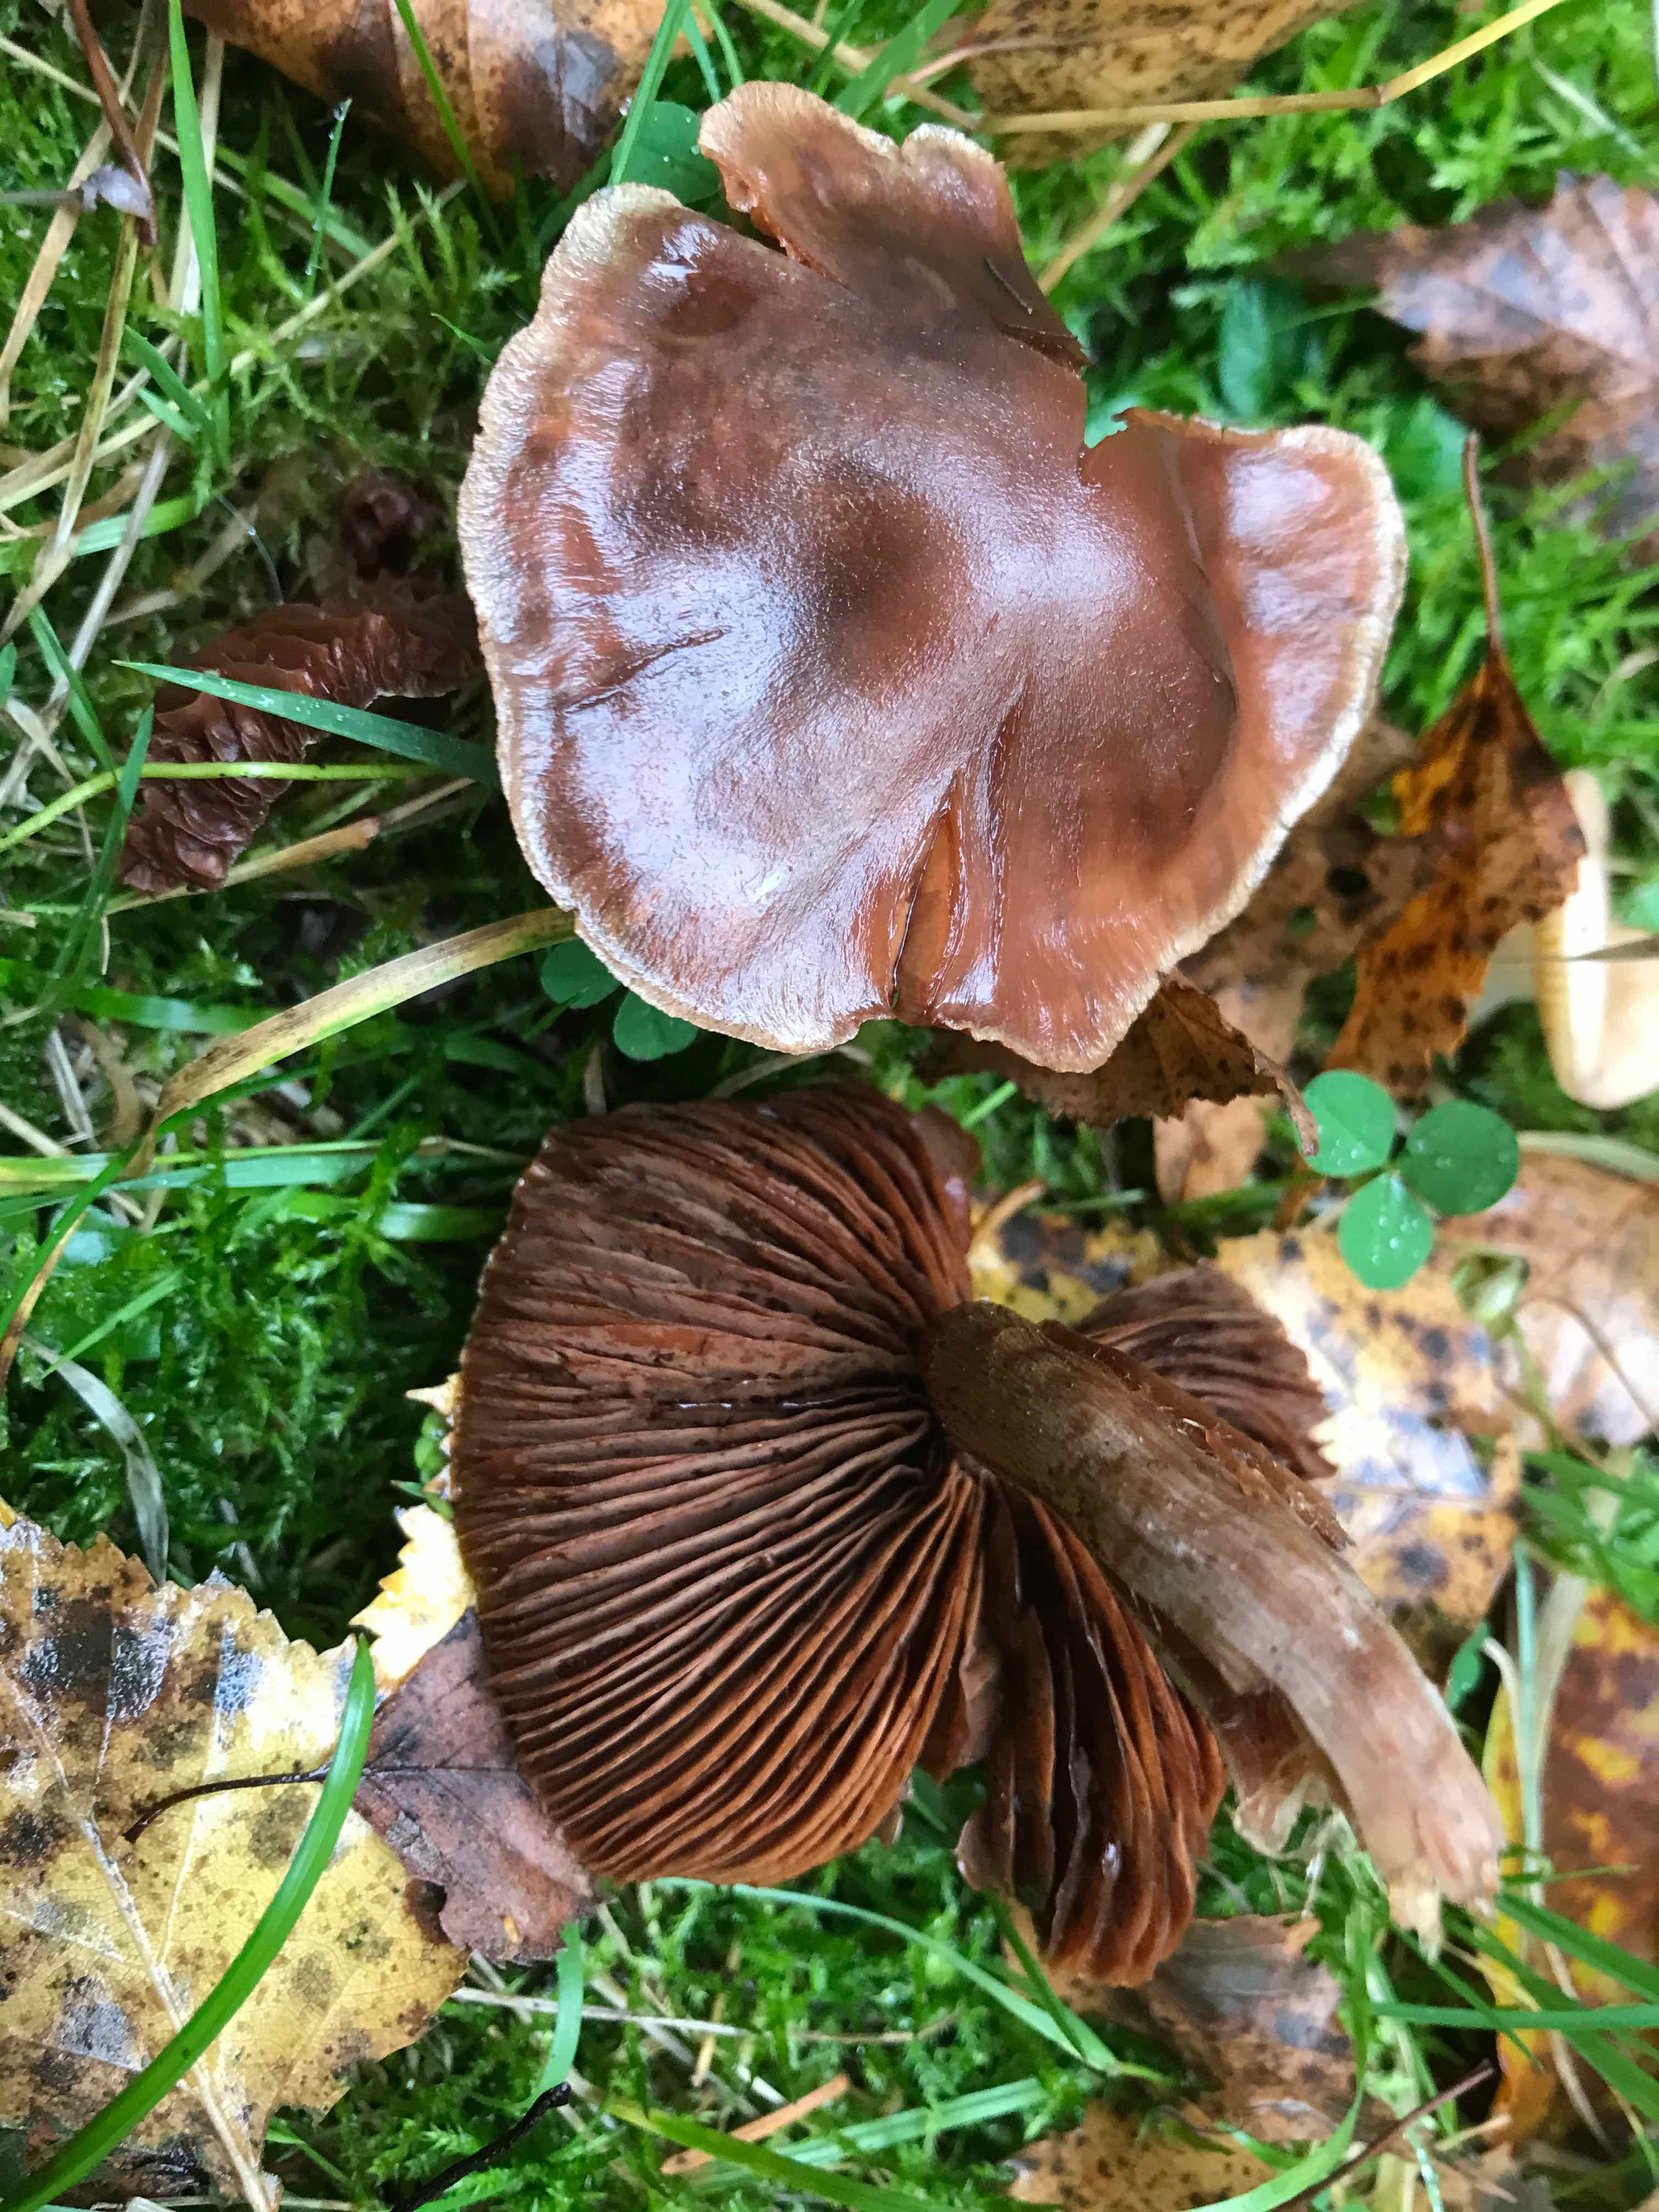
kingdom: Fungi
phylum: Basidiomycota
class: Agaricomycetes
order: Agaricales
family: Cortinariaceae
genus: Cortinarius
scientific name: Cortinarius
